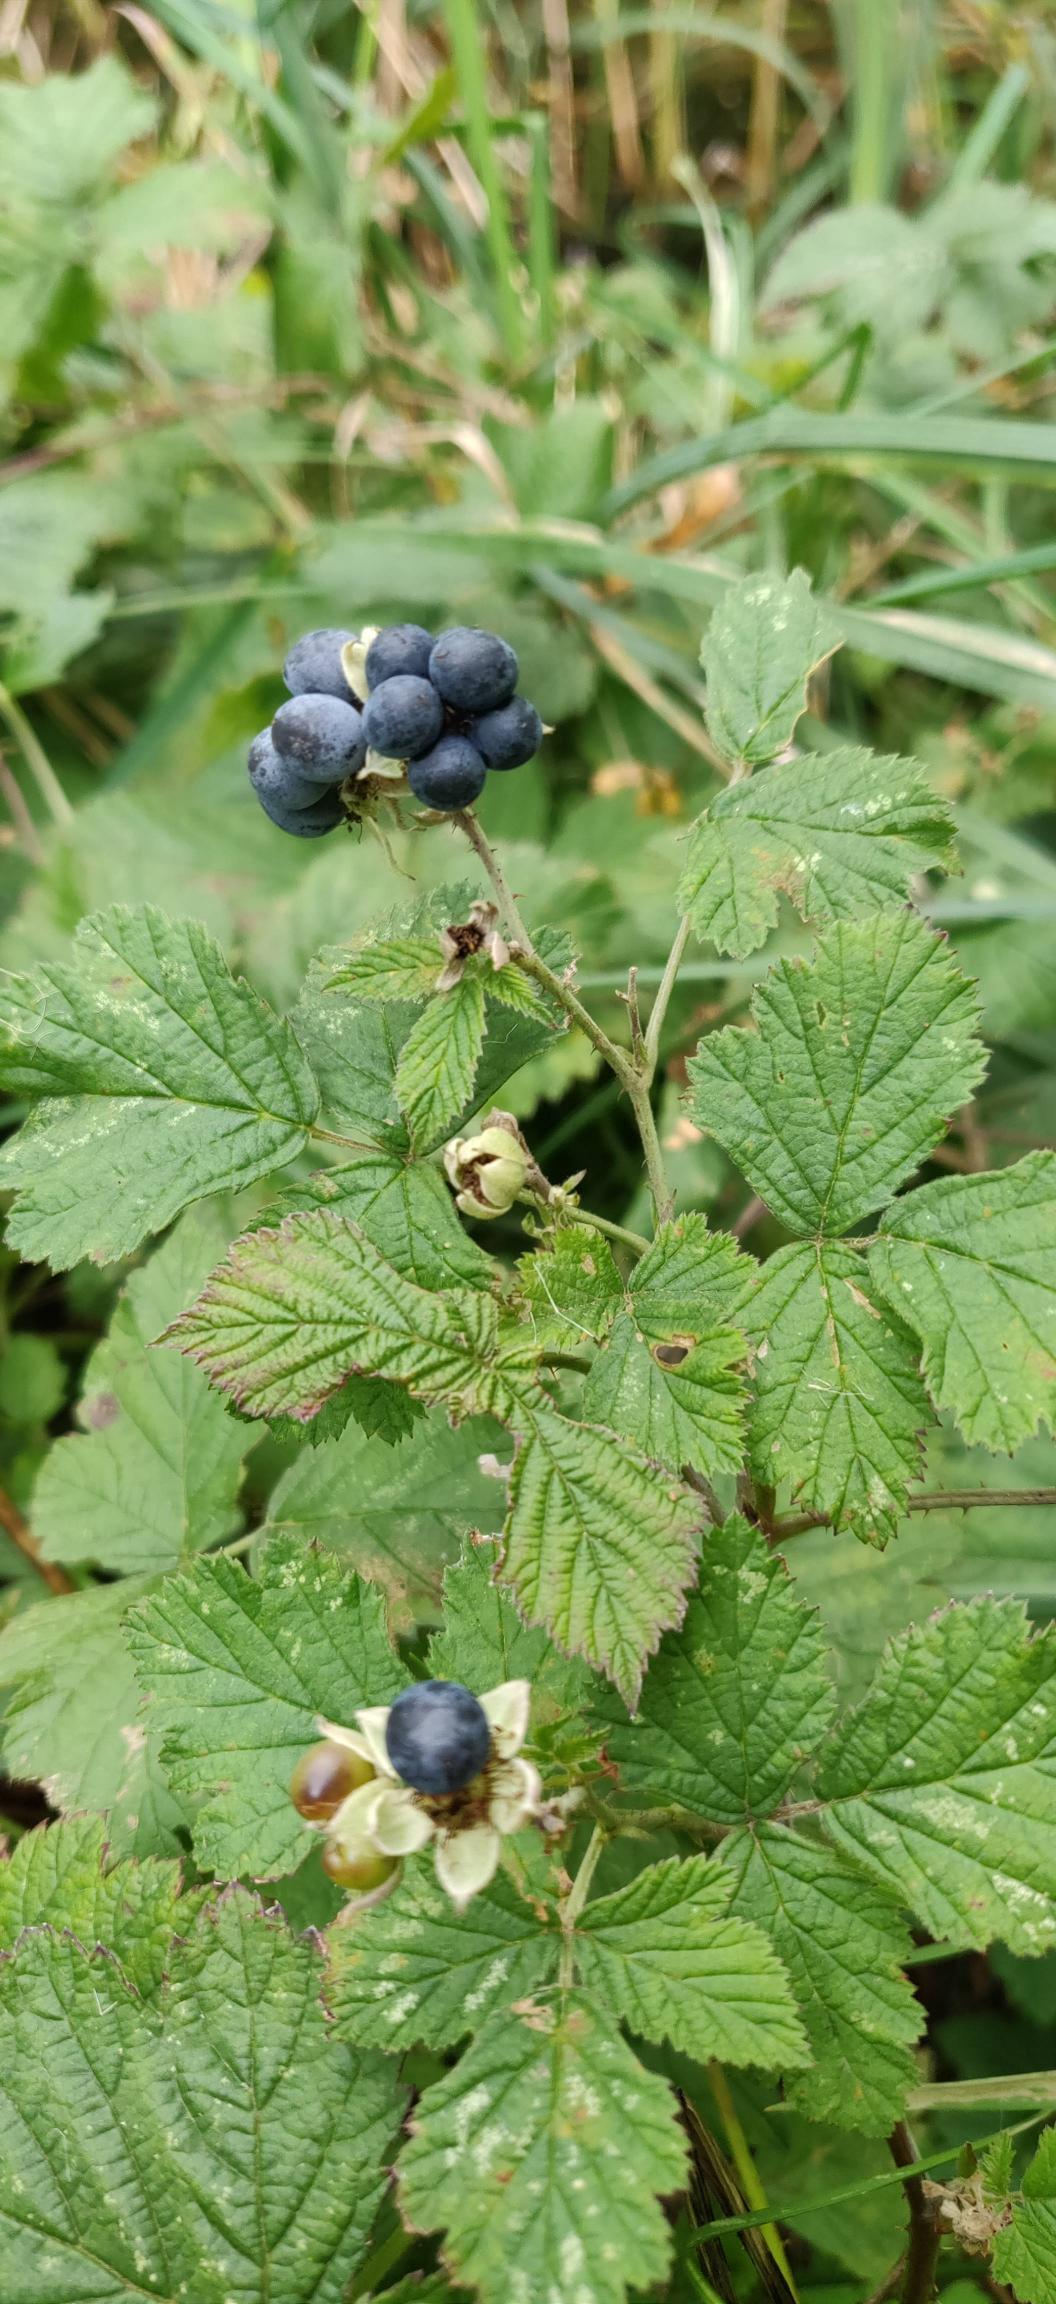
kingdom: Plantae
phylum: Tracheophyta
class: Magnoliopsida
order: Rosales
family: Rosaceae
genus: Rubus
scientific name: Rubus caesius
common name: Korbær
